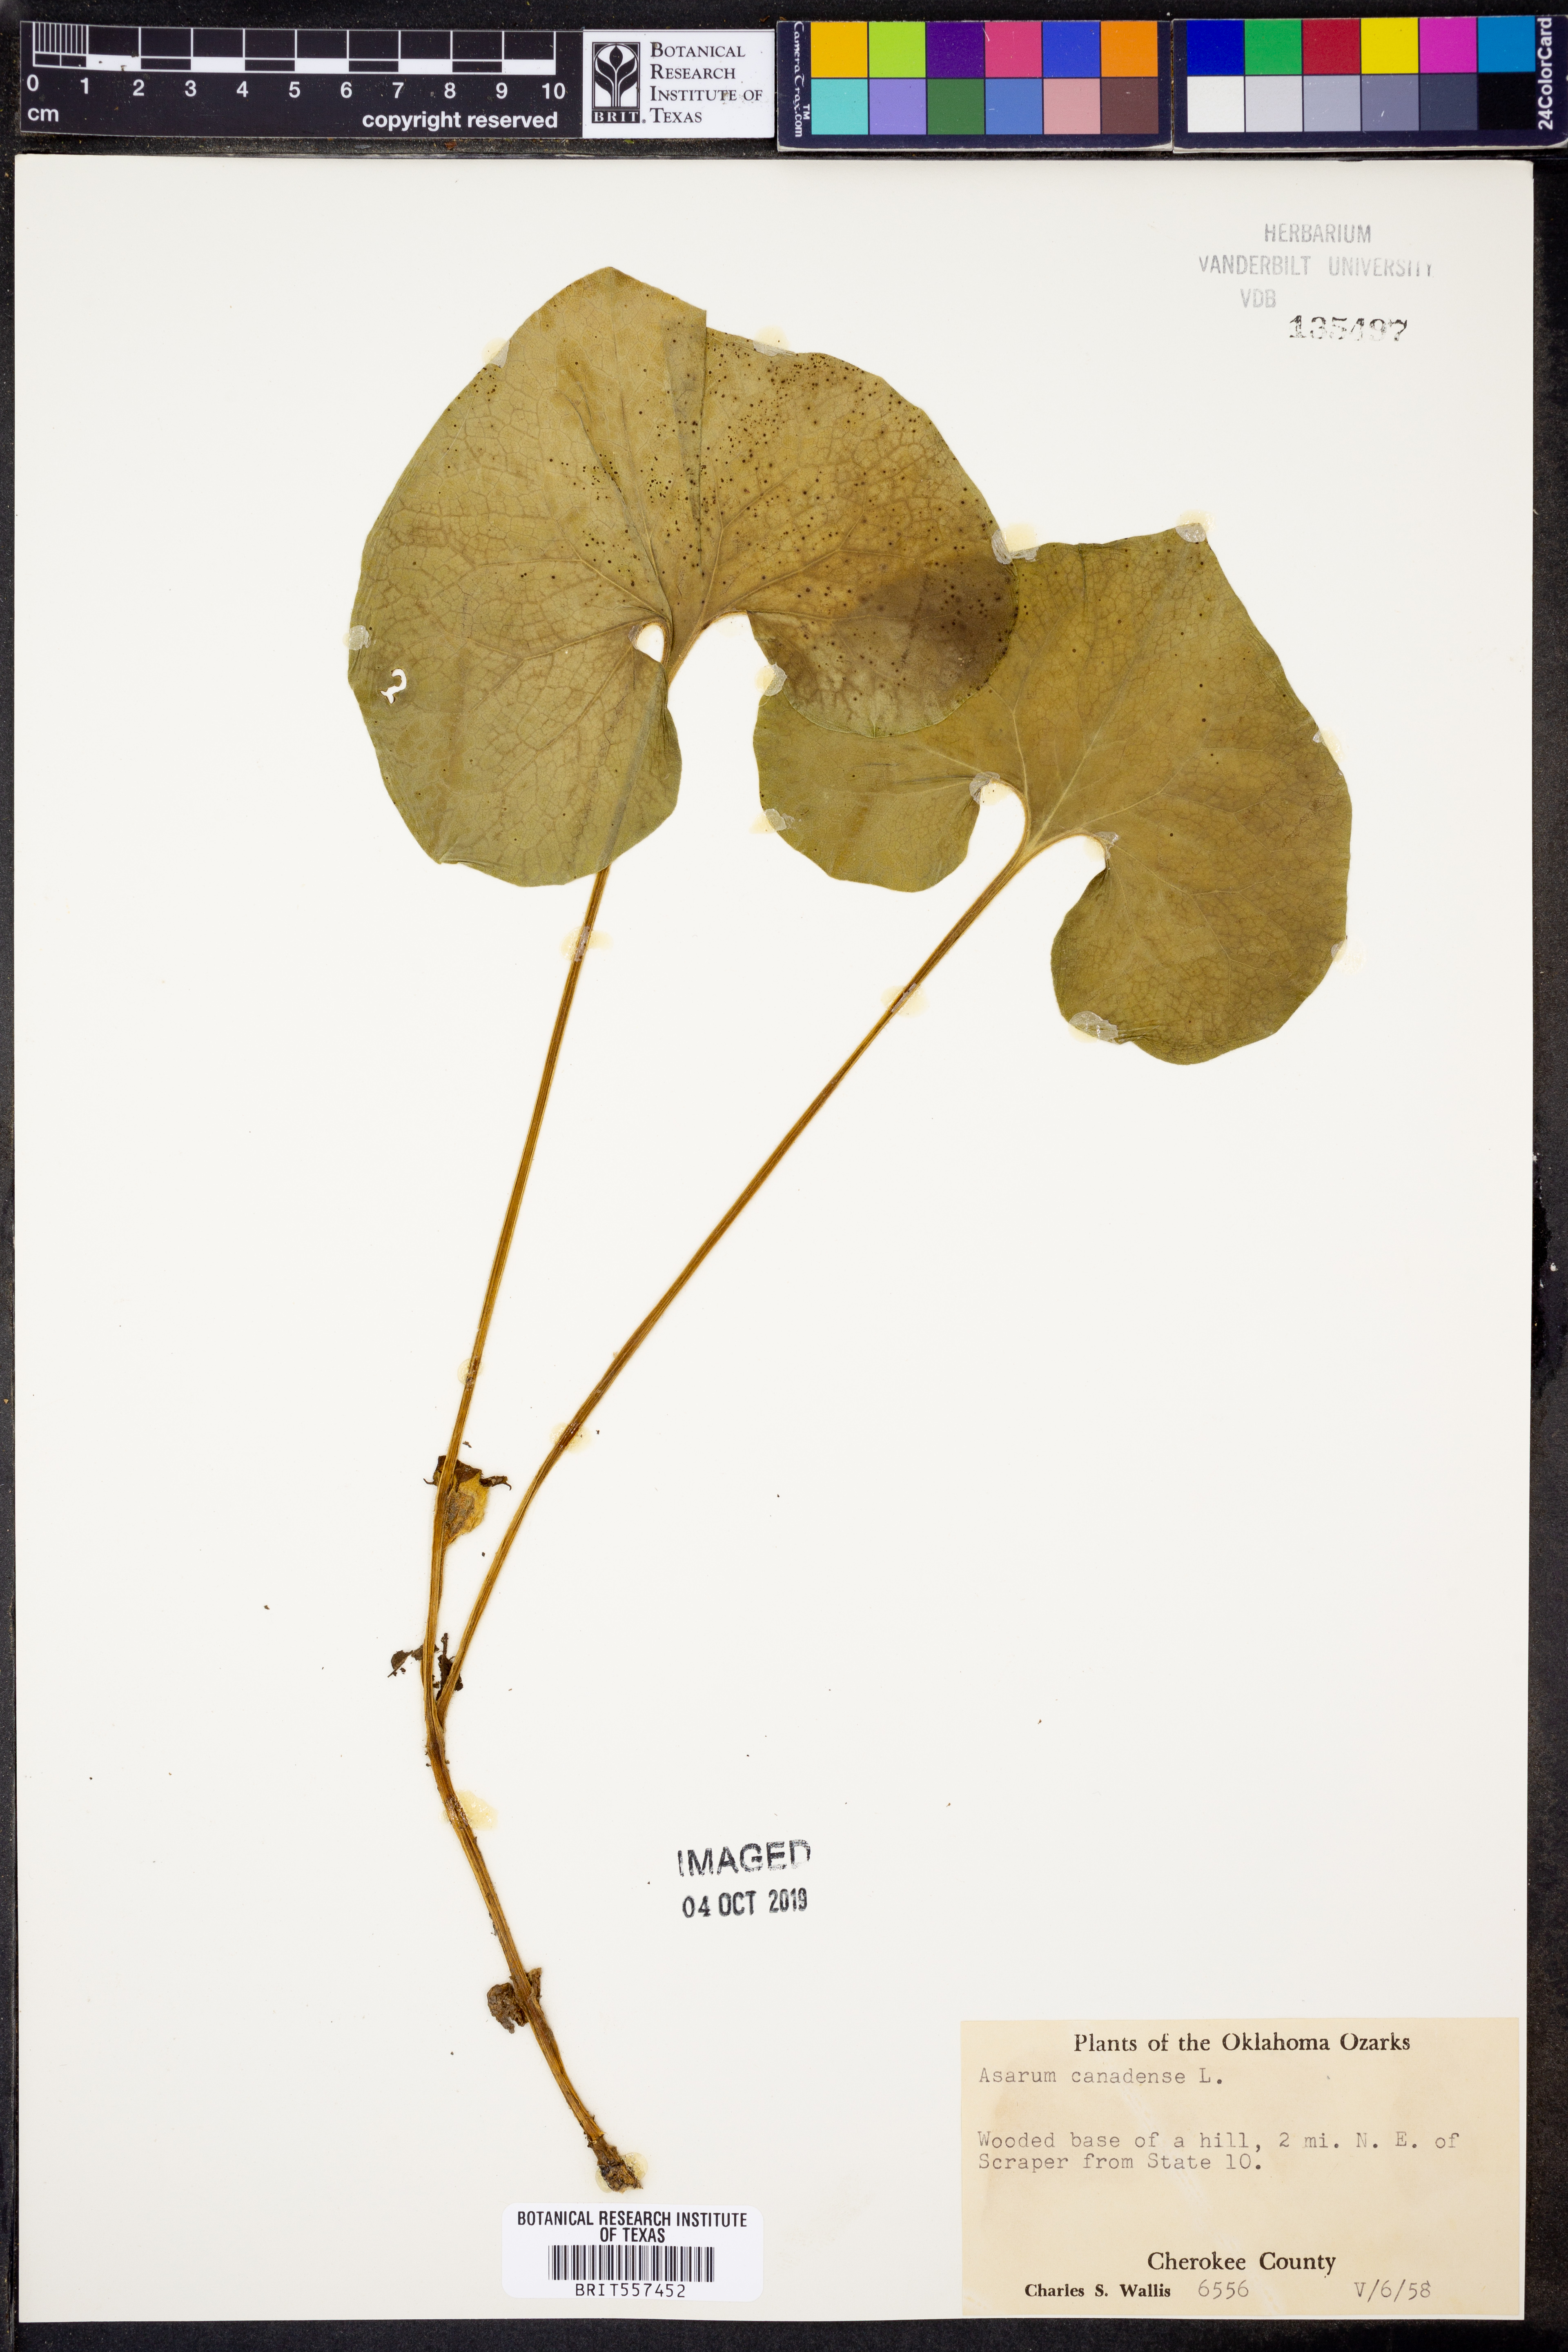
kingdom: Plantae
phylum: Tracheophyta
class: Magnoliopsida
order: Piperales
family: Aristolochiaceae
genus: Asarum
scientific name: Asarum canadense
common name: Wild ginger
